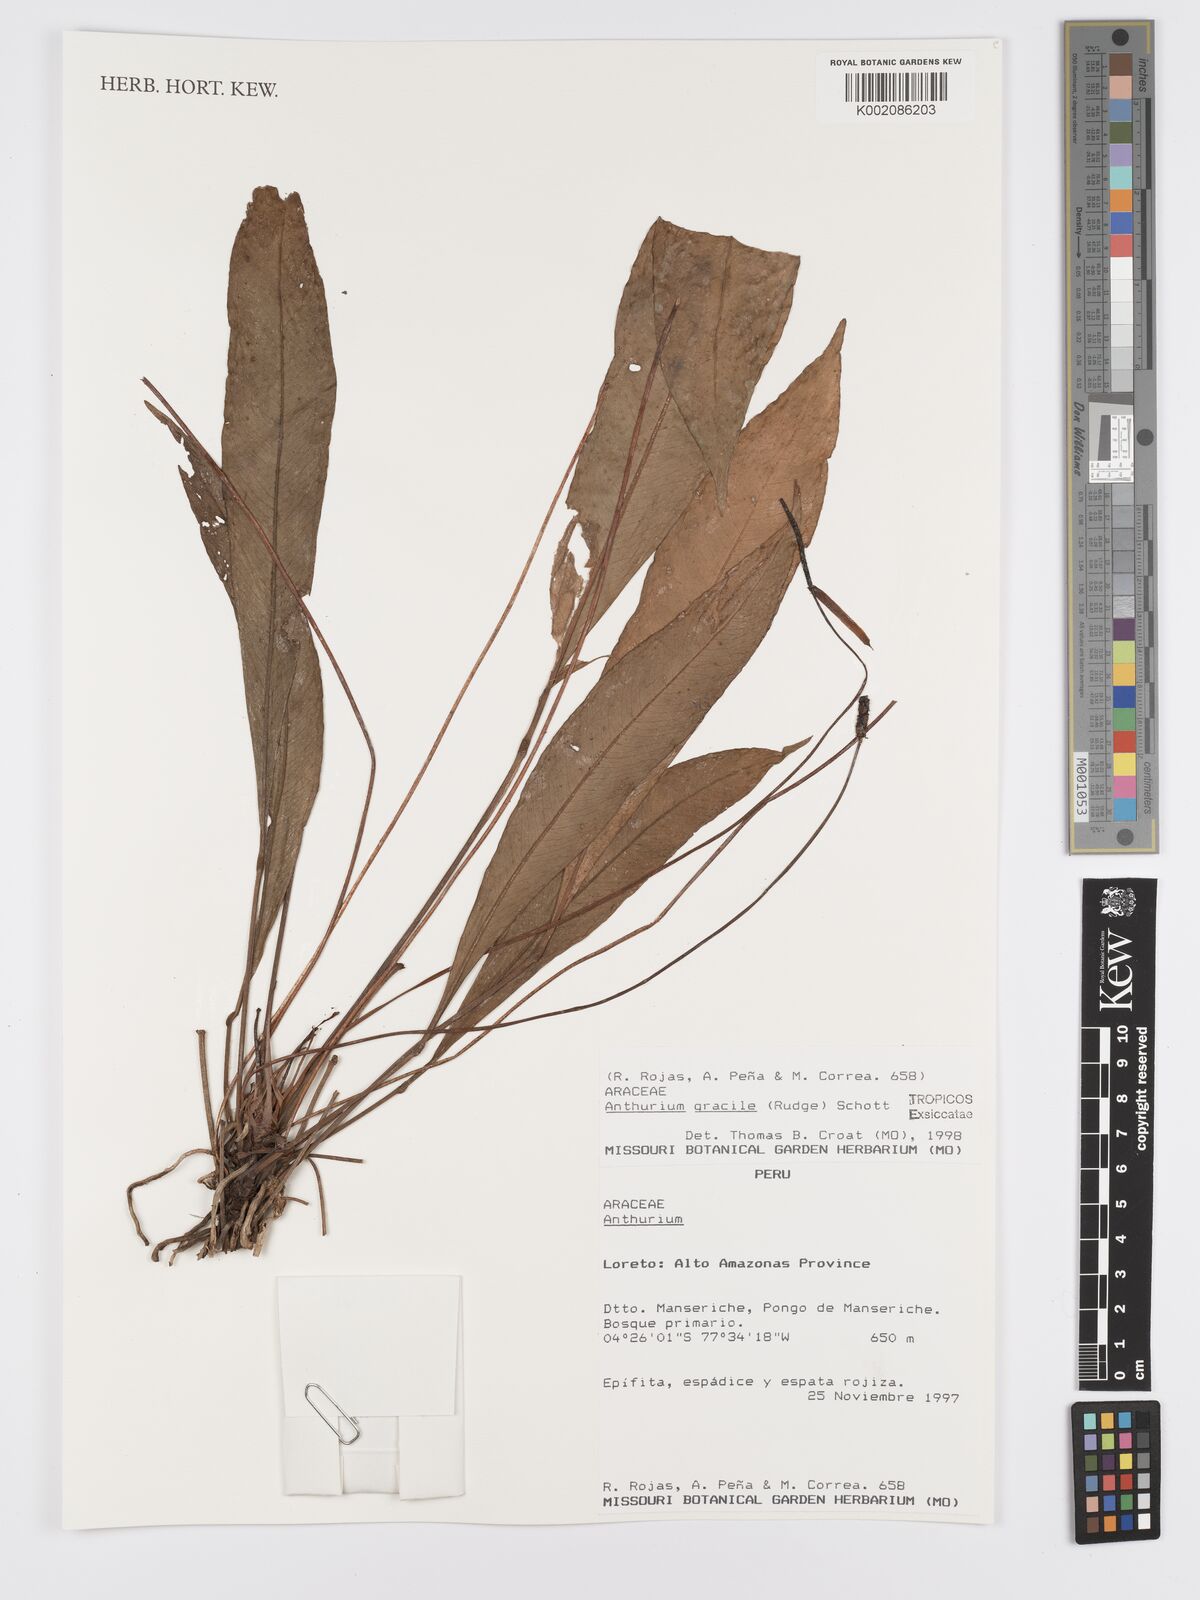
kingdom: Plantae
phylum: Tracheophyta
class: Liliopsida
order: Alismatales
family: Araceae
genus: Anthurium
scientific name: Anthurium gracile
